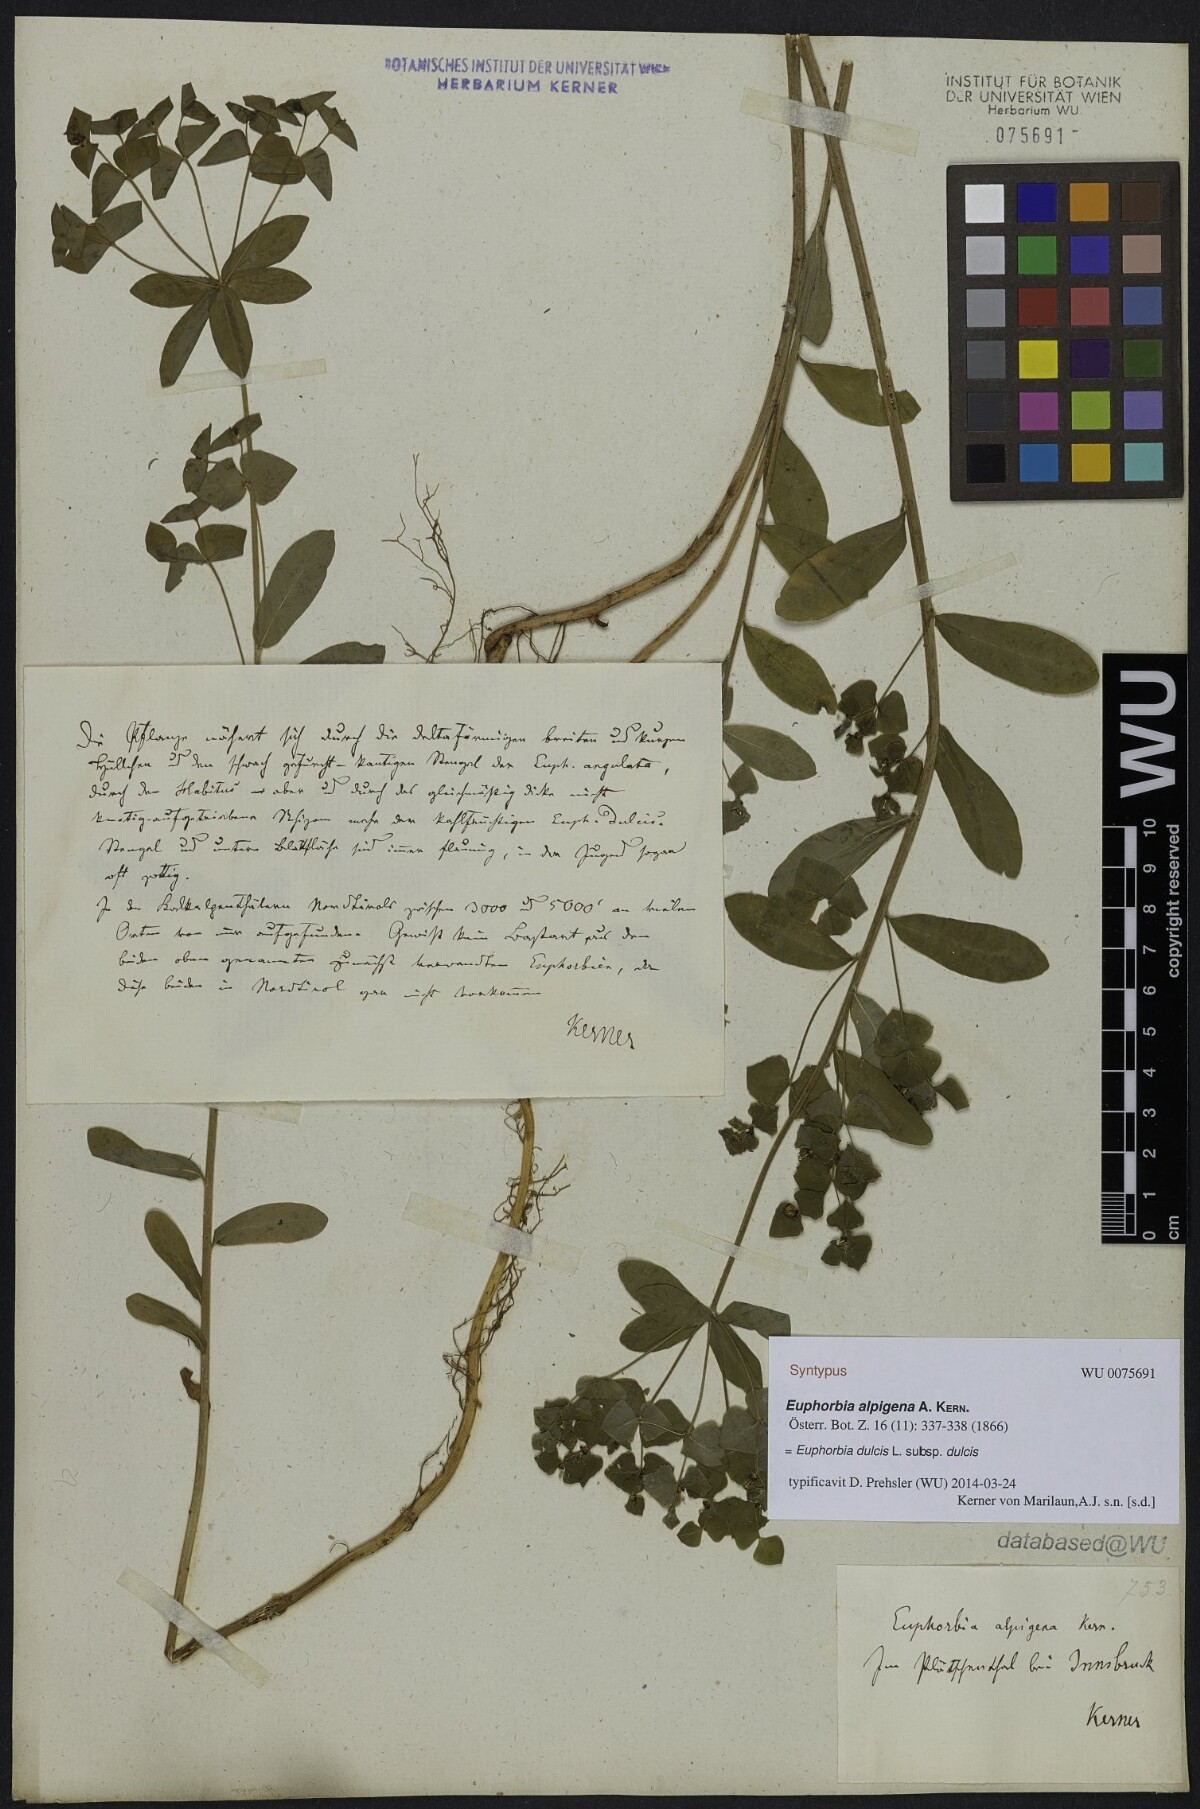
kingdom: Plantae
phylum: Tracheophyta
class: Magnoliopsida
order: Malpighiales
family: Euphorbiaceae
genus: Euphorbia
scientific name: Euphorbia dulcis
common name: Sweet spurge
